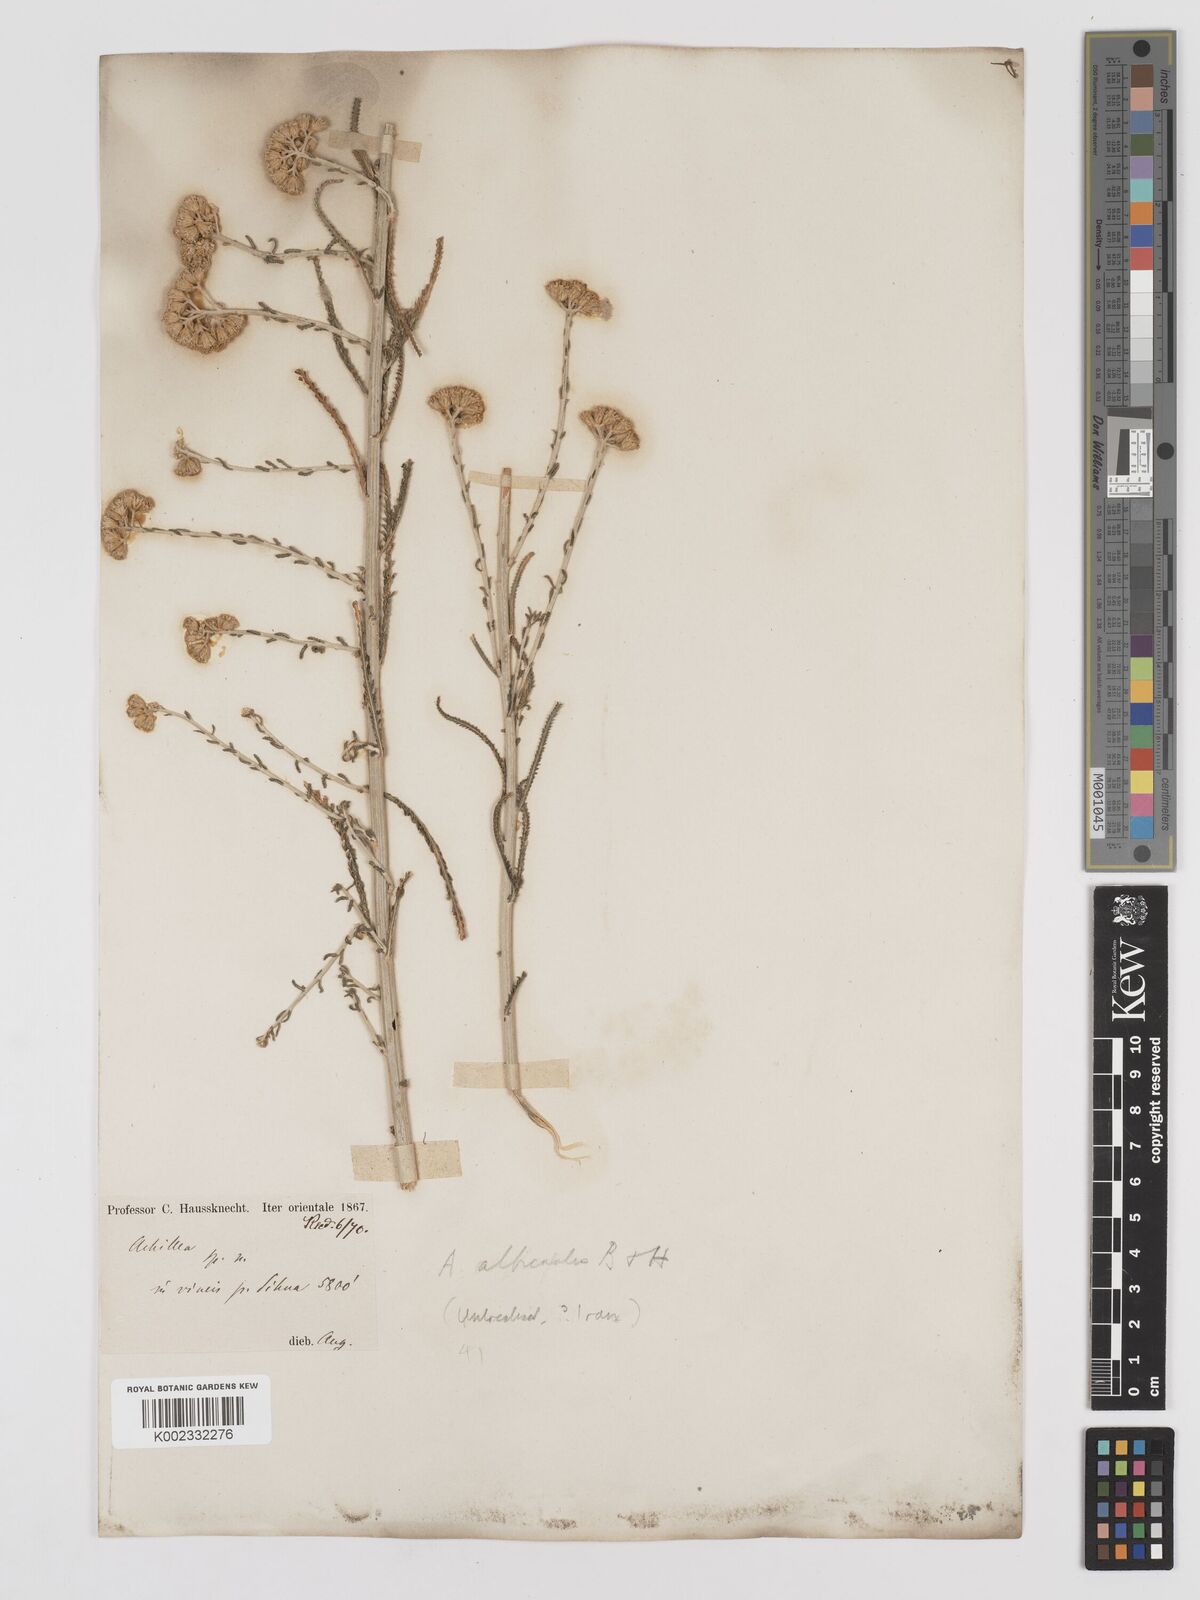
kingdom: Plantae
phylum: Tracheophyta
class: Magnoliopsida
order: Asterales
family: Asteraceae
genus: Achillea
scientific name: Achillea tenuifolia
